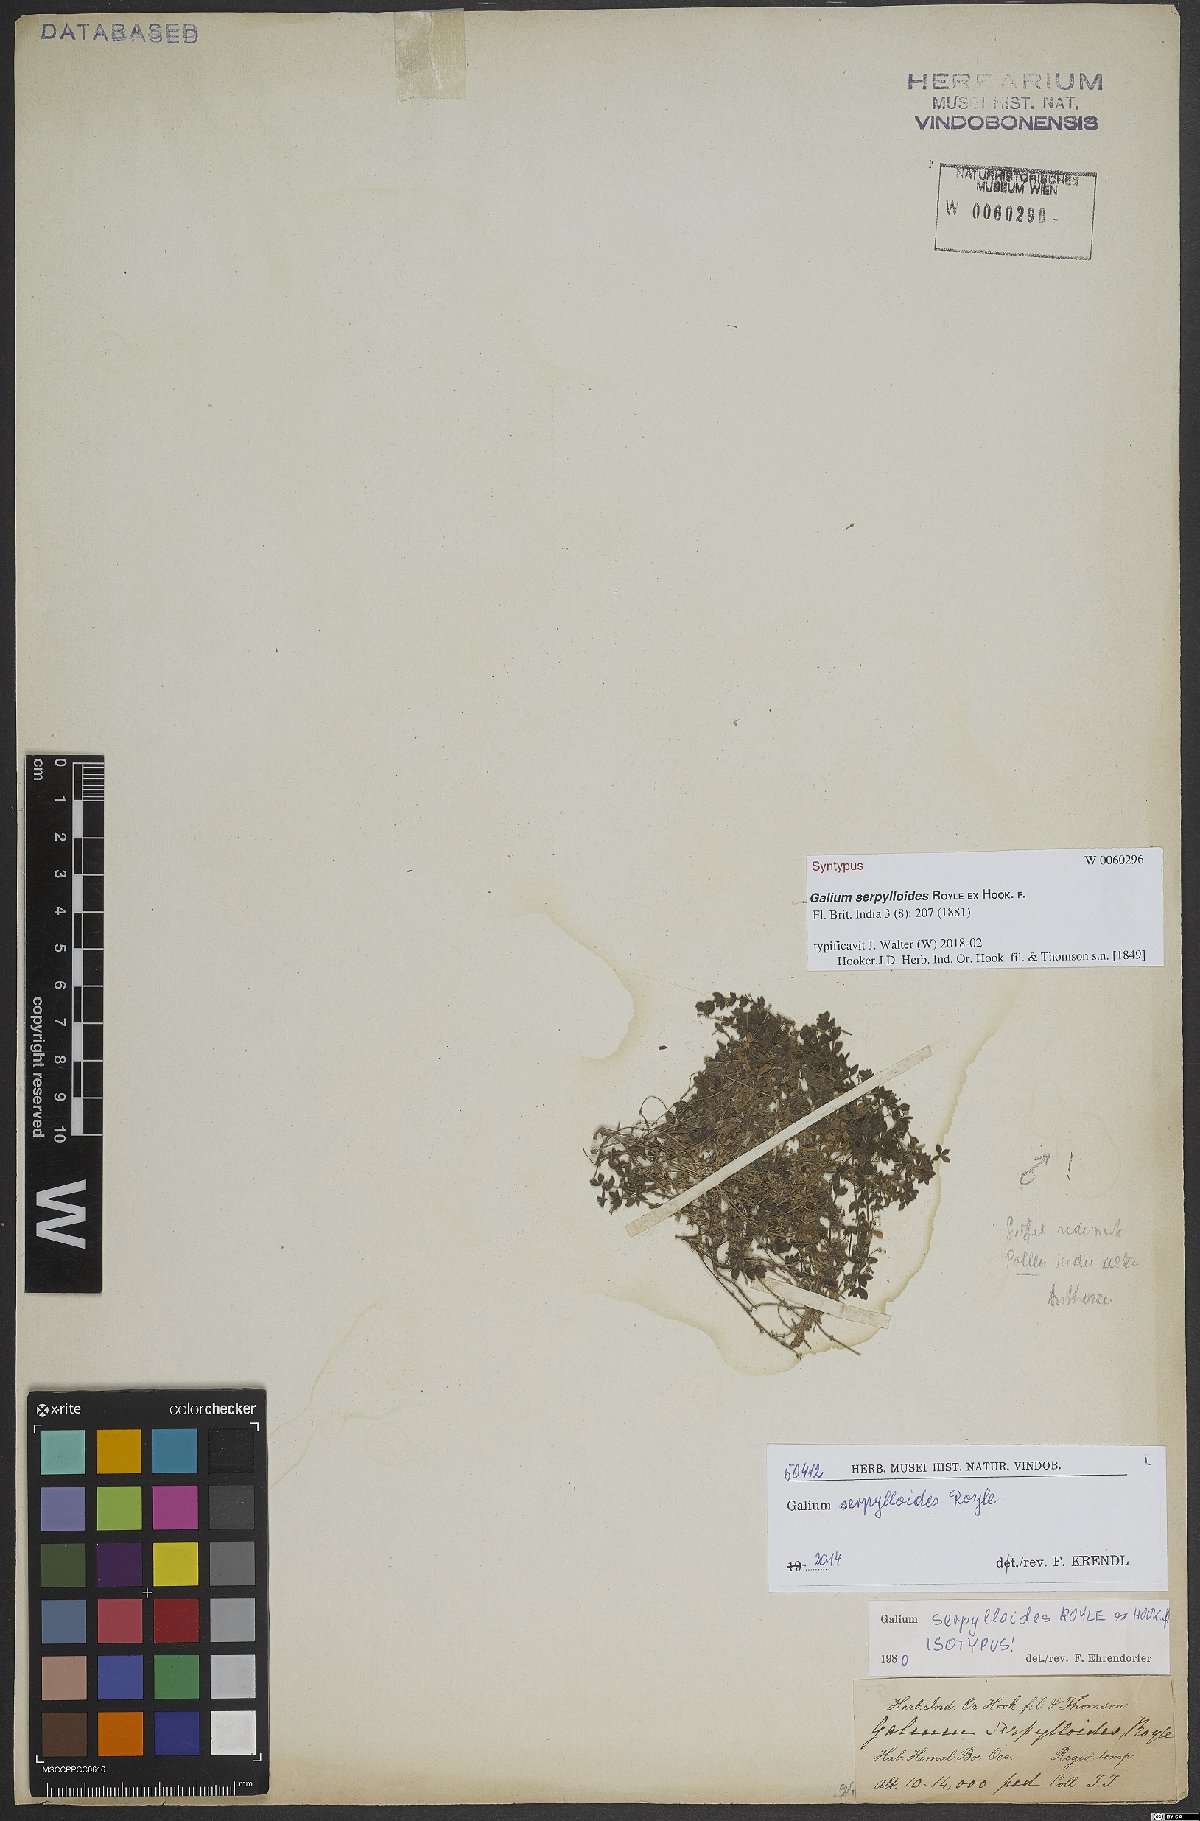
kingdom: Plantae
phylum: Tracheophyta
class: Magnoliopsida
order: Gentianales
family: Rubiaceae
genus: Galium
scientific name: Galium serpylloides
